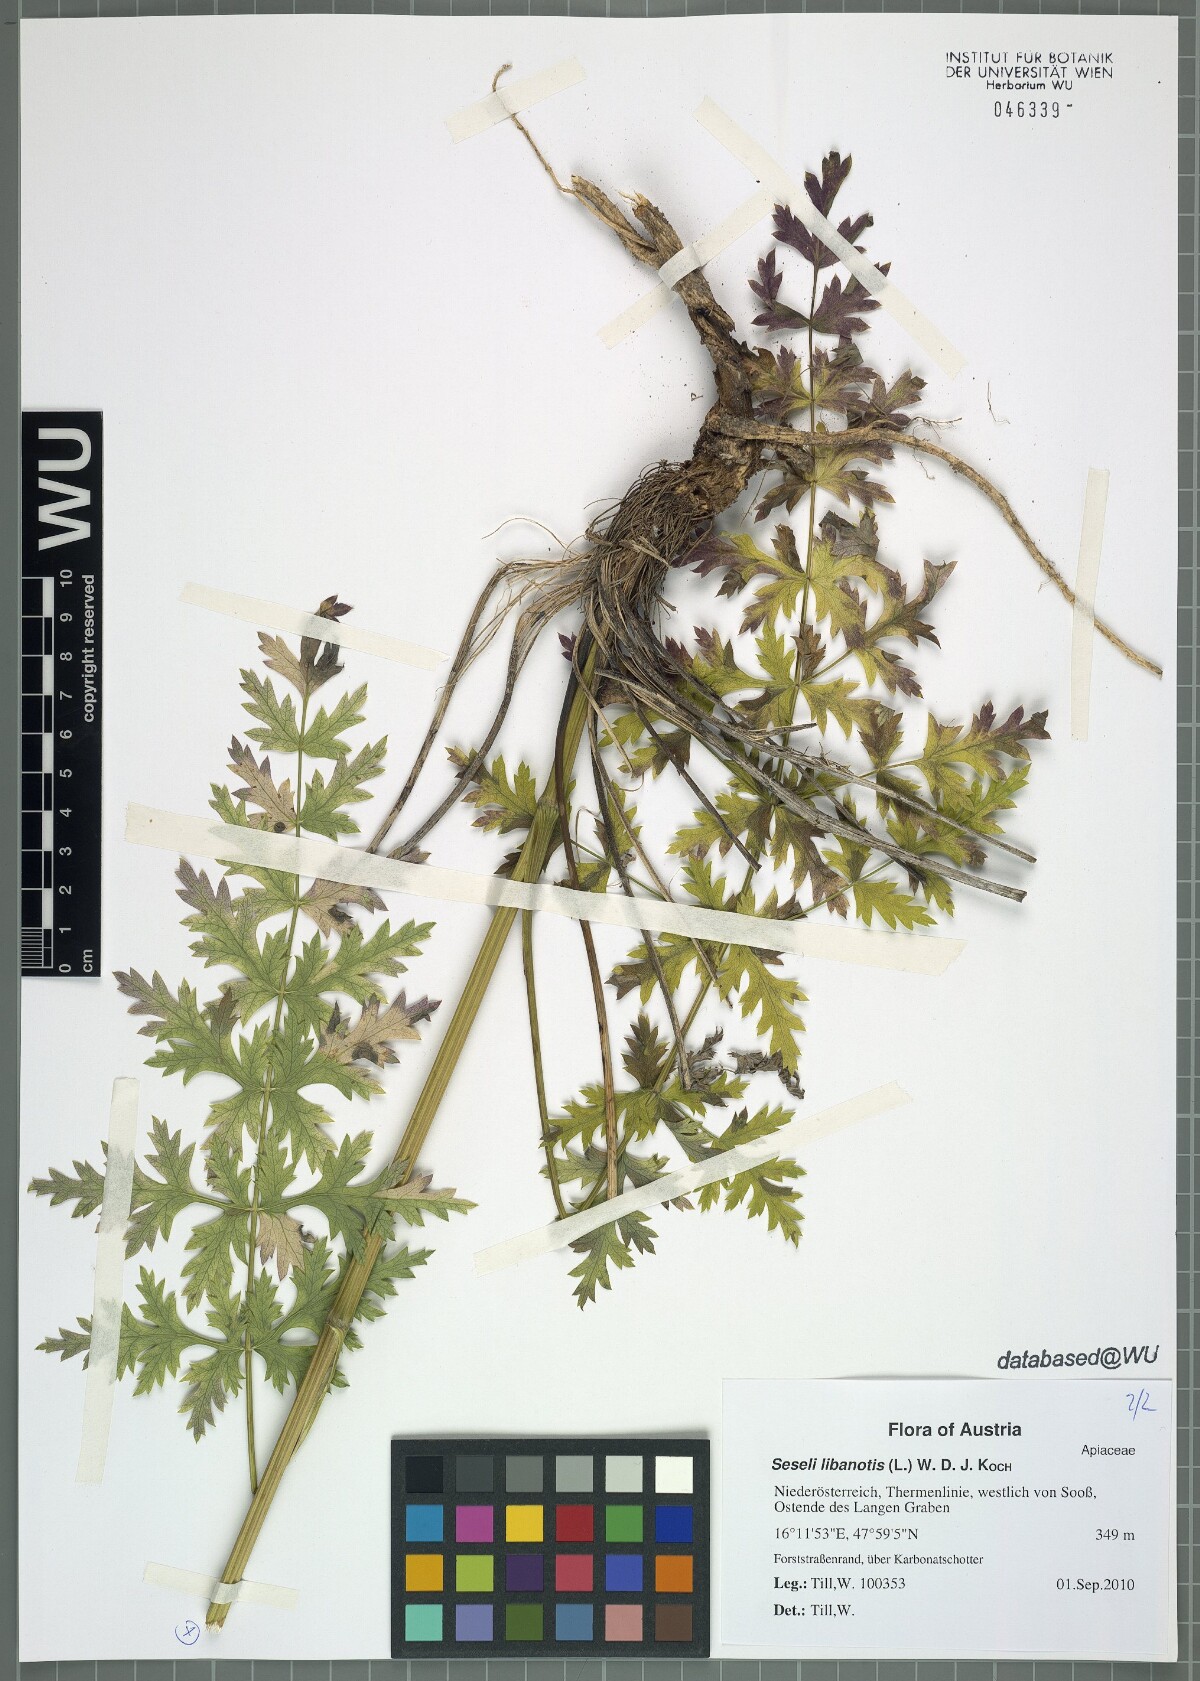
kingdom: Plantae
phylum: Tracheophyta
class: Magnoliopsida
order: Apiales
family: Apiaceae
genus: Seseli
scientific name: Seseli libanotis
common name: Mooncarrot
